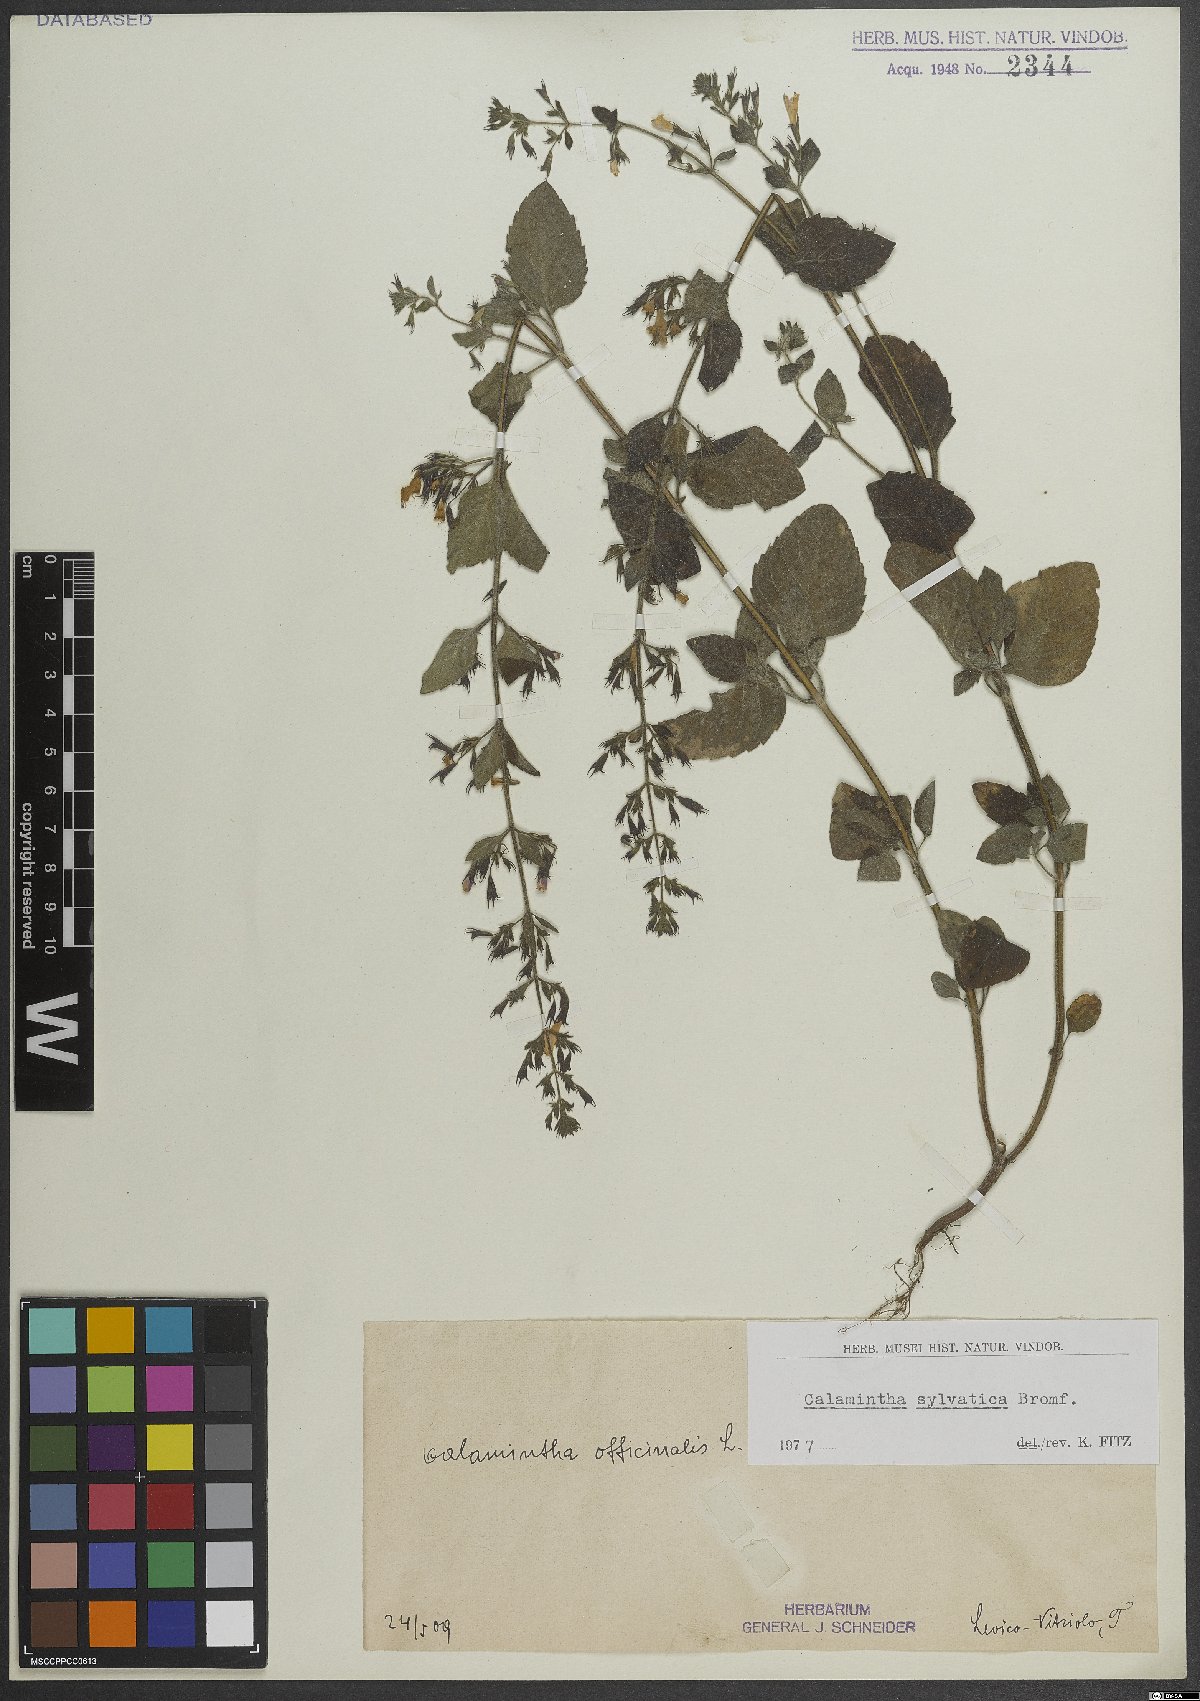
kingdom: Plantae
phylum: Tracheophyta
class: Magnoliopsida
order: Lamiales
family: Lamiaceae
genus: Clinopodium
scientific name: Clinopodium menthifolium
